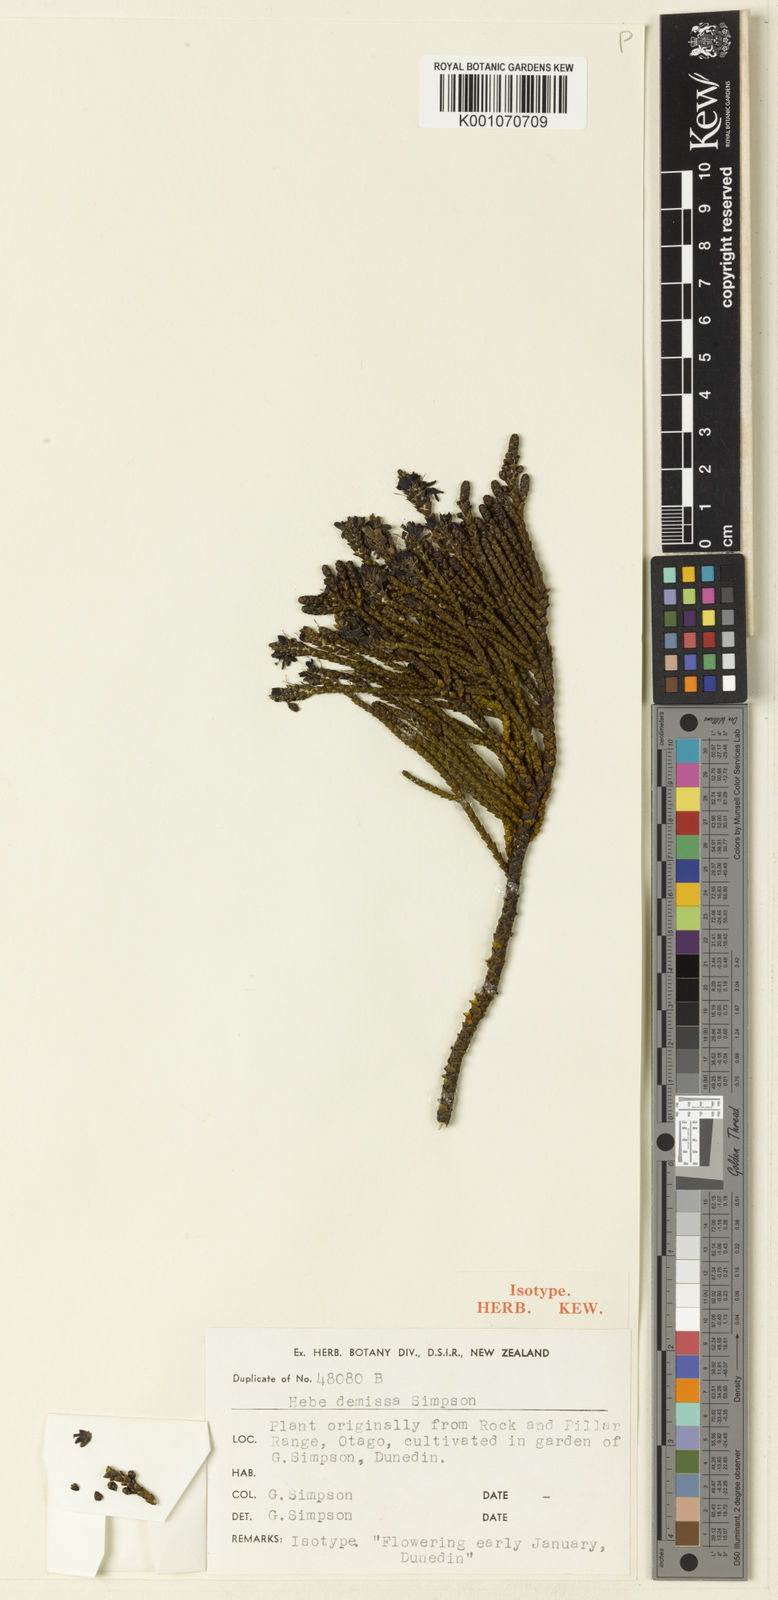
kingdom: Plantae
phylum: Tracheophyta
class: Magnoliopsida
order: Lamiales
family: Plantaginaceae
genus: Veronica
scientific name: Veronica hectorii
